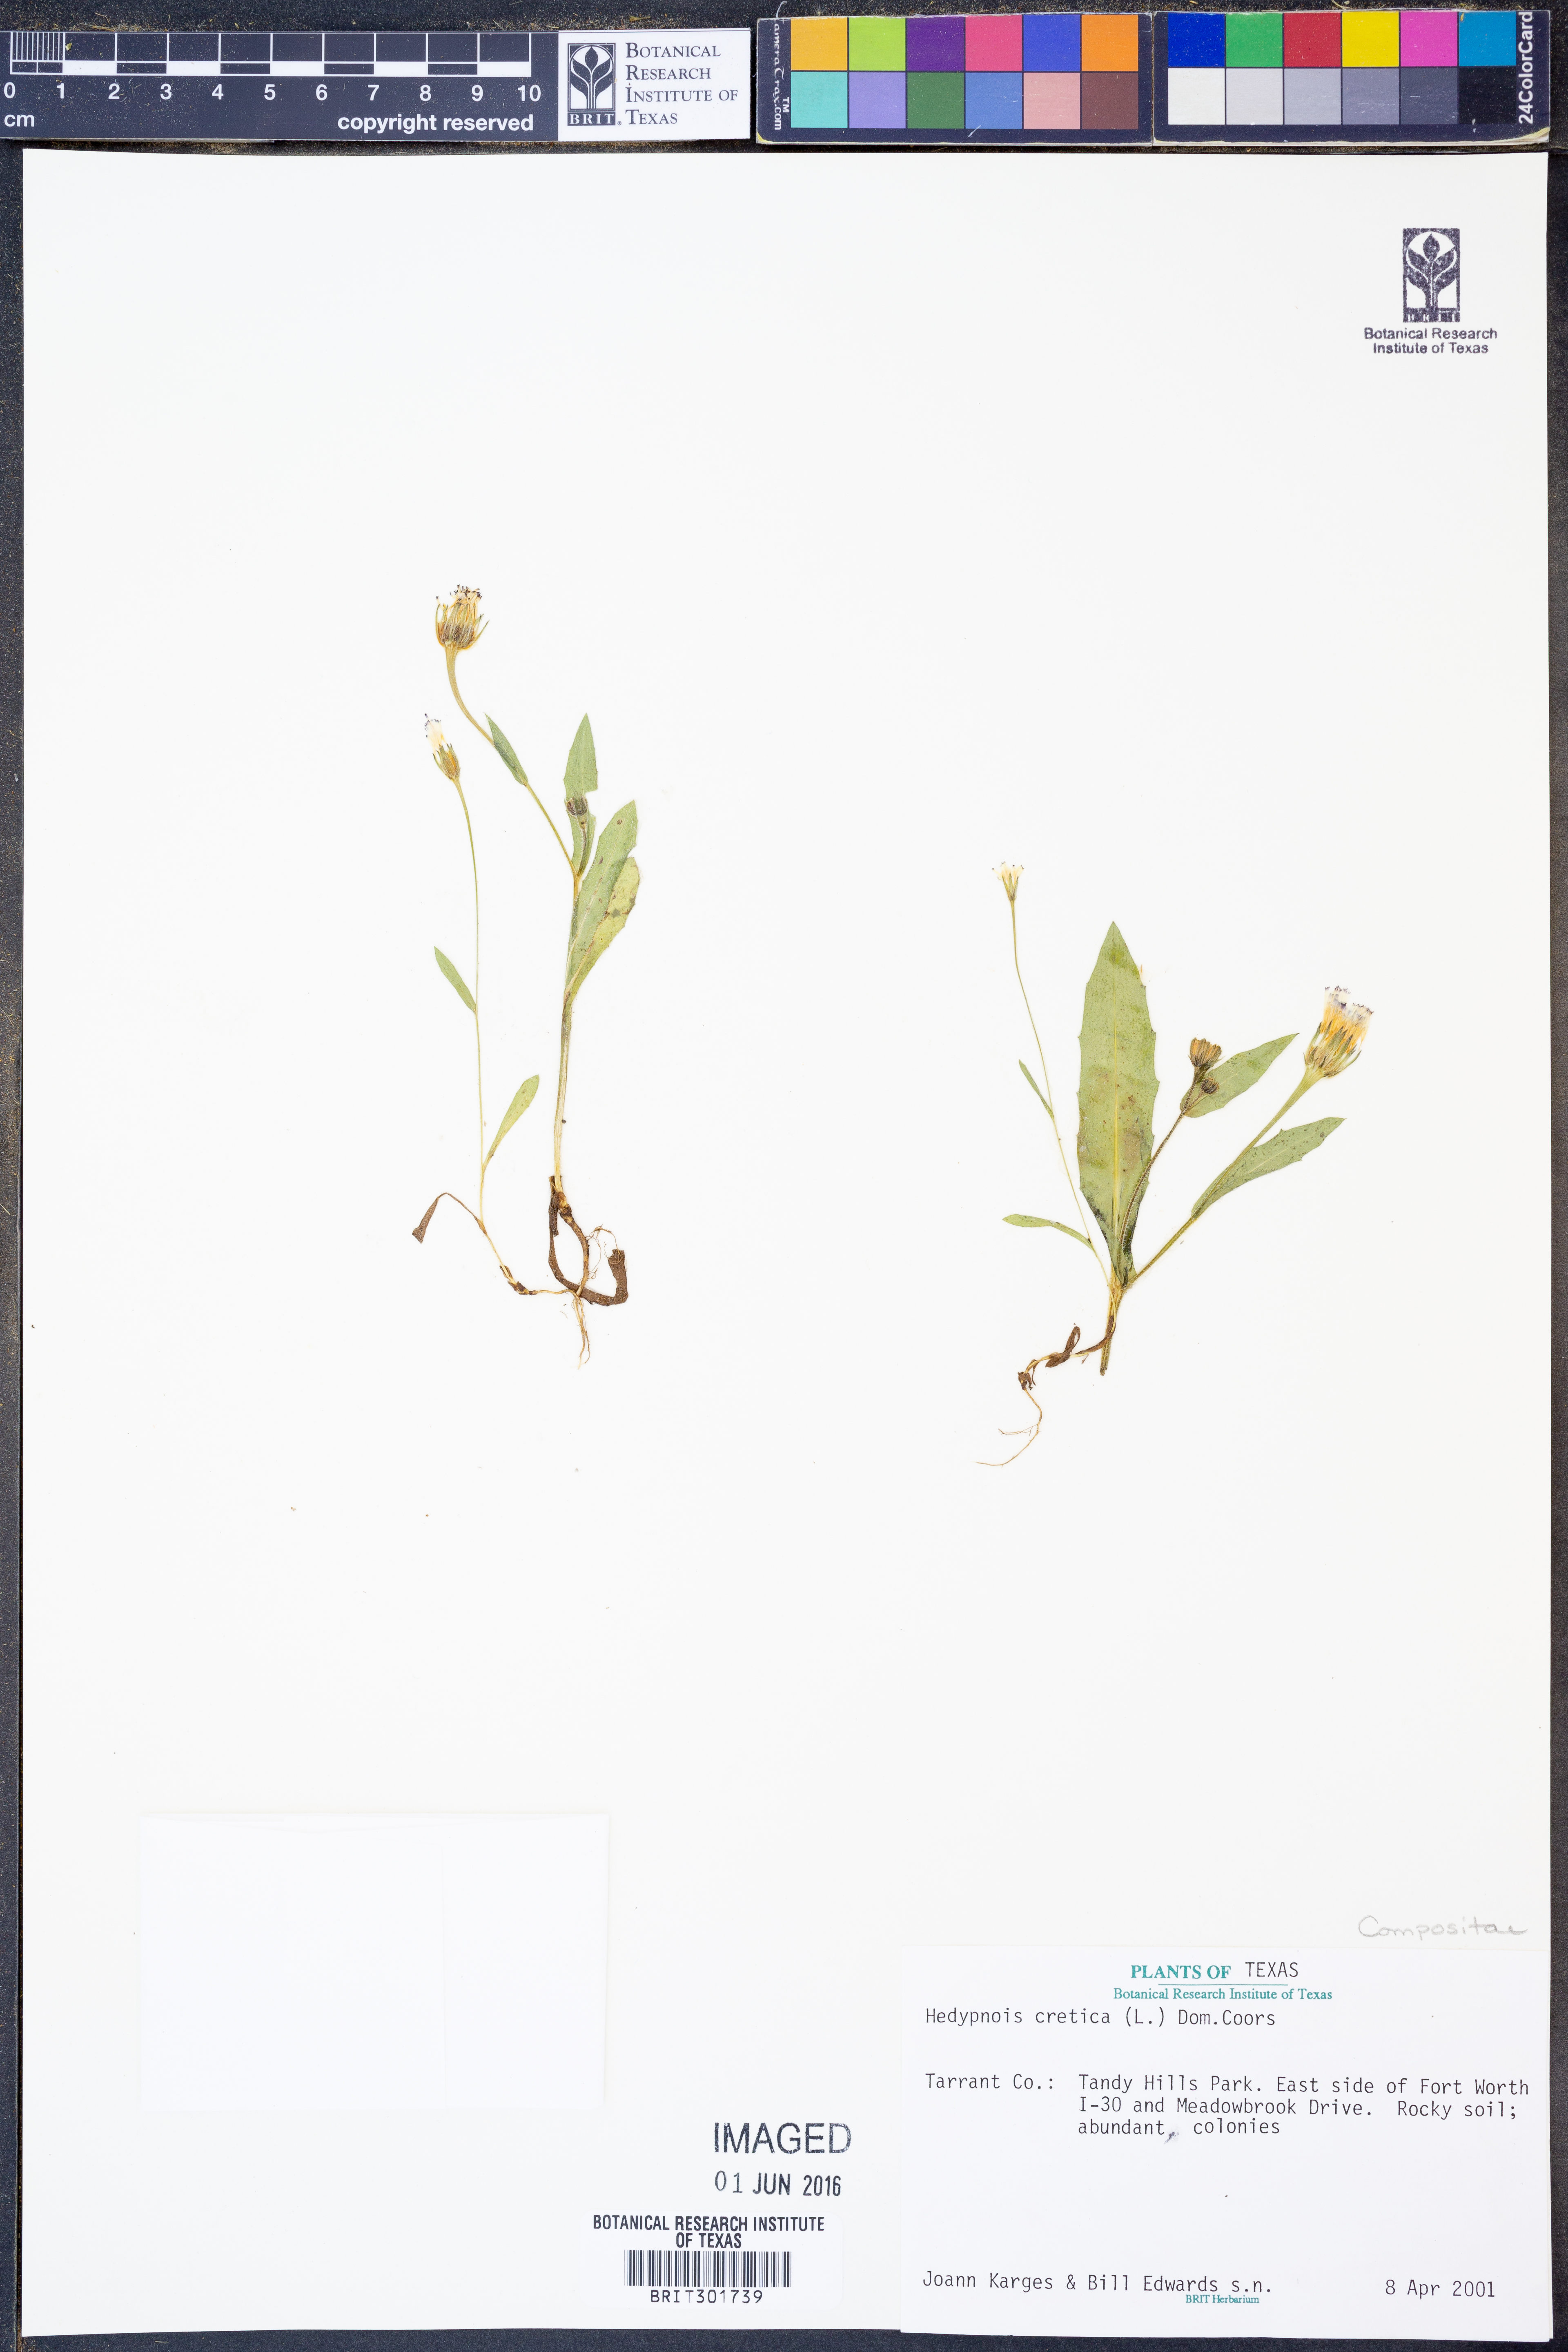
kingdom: Plantae
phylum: Tracheophyta
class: Magnoliopsida
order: Asterales
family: Asteraceae
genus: Hedypnois
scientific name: Hedypnois cretica
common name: Scaly hawkbit
